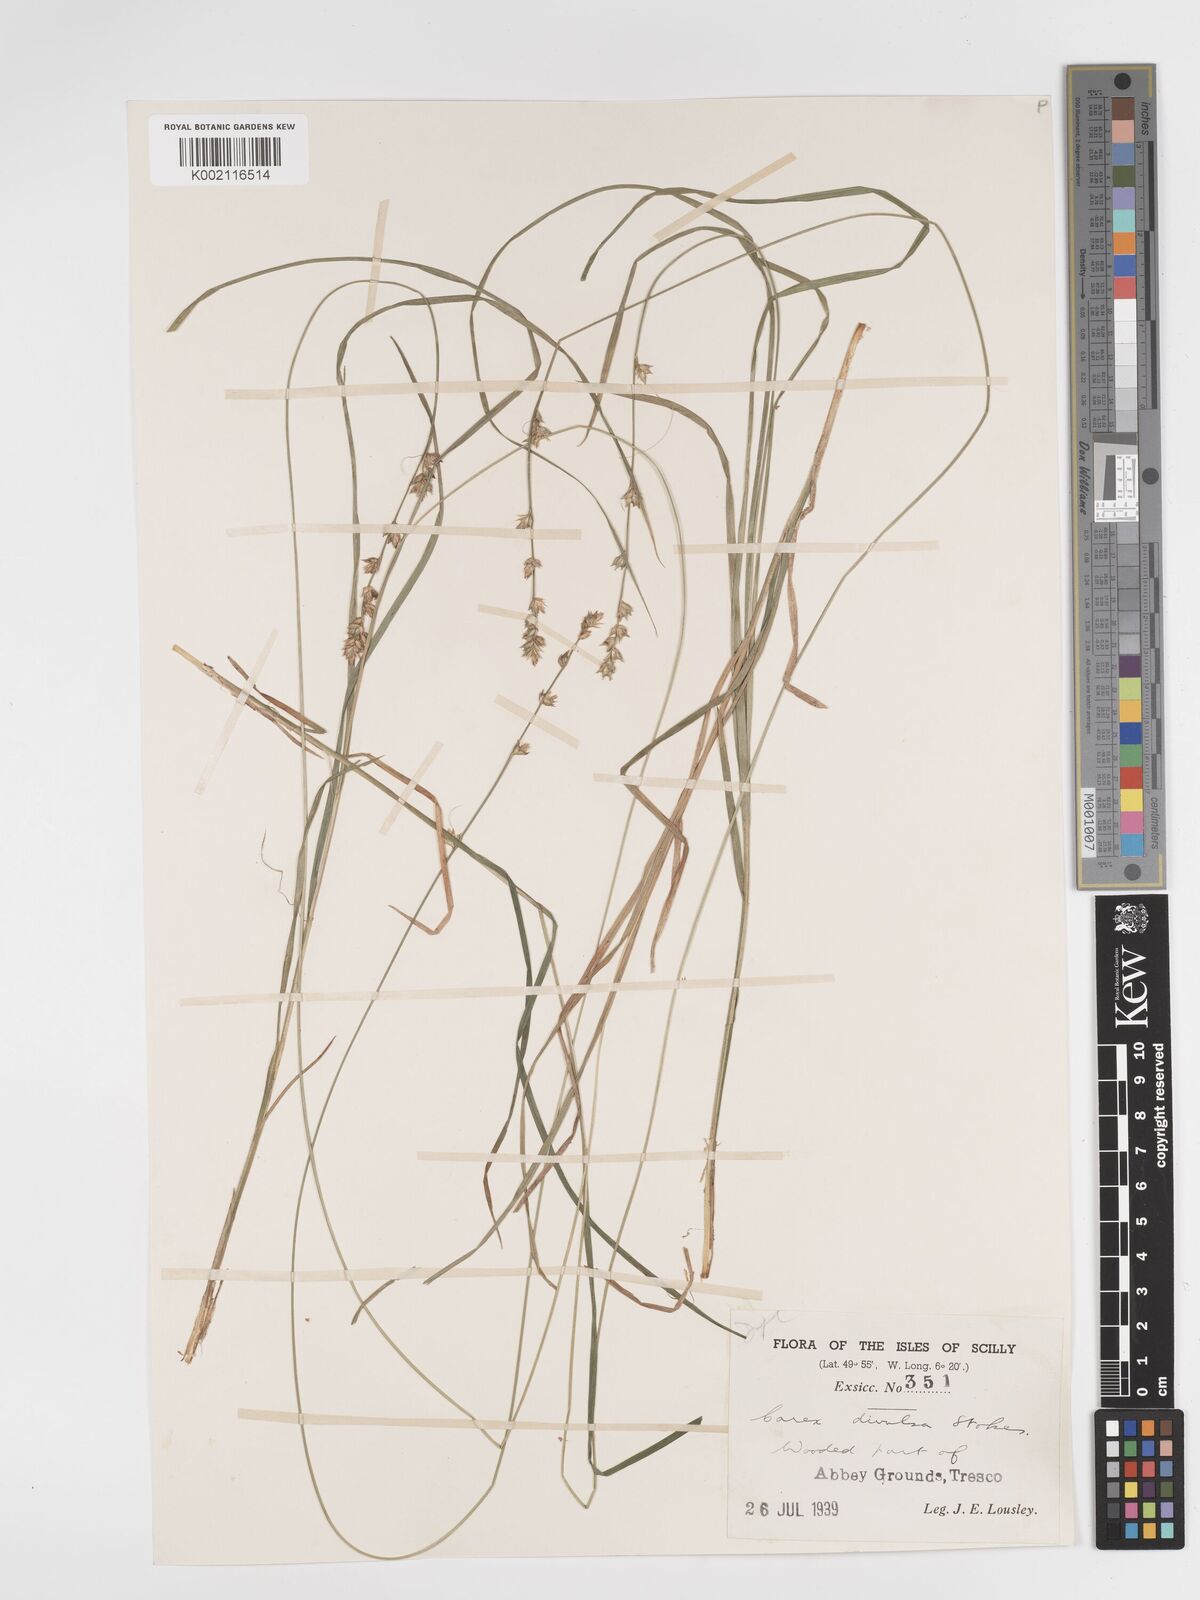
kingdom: Plantae
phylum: Tracheophyta
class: Liliopsida
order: Poales
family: Cyperaceae
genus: Carex
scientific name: Carex divulsa
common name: Grassland sedge
